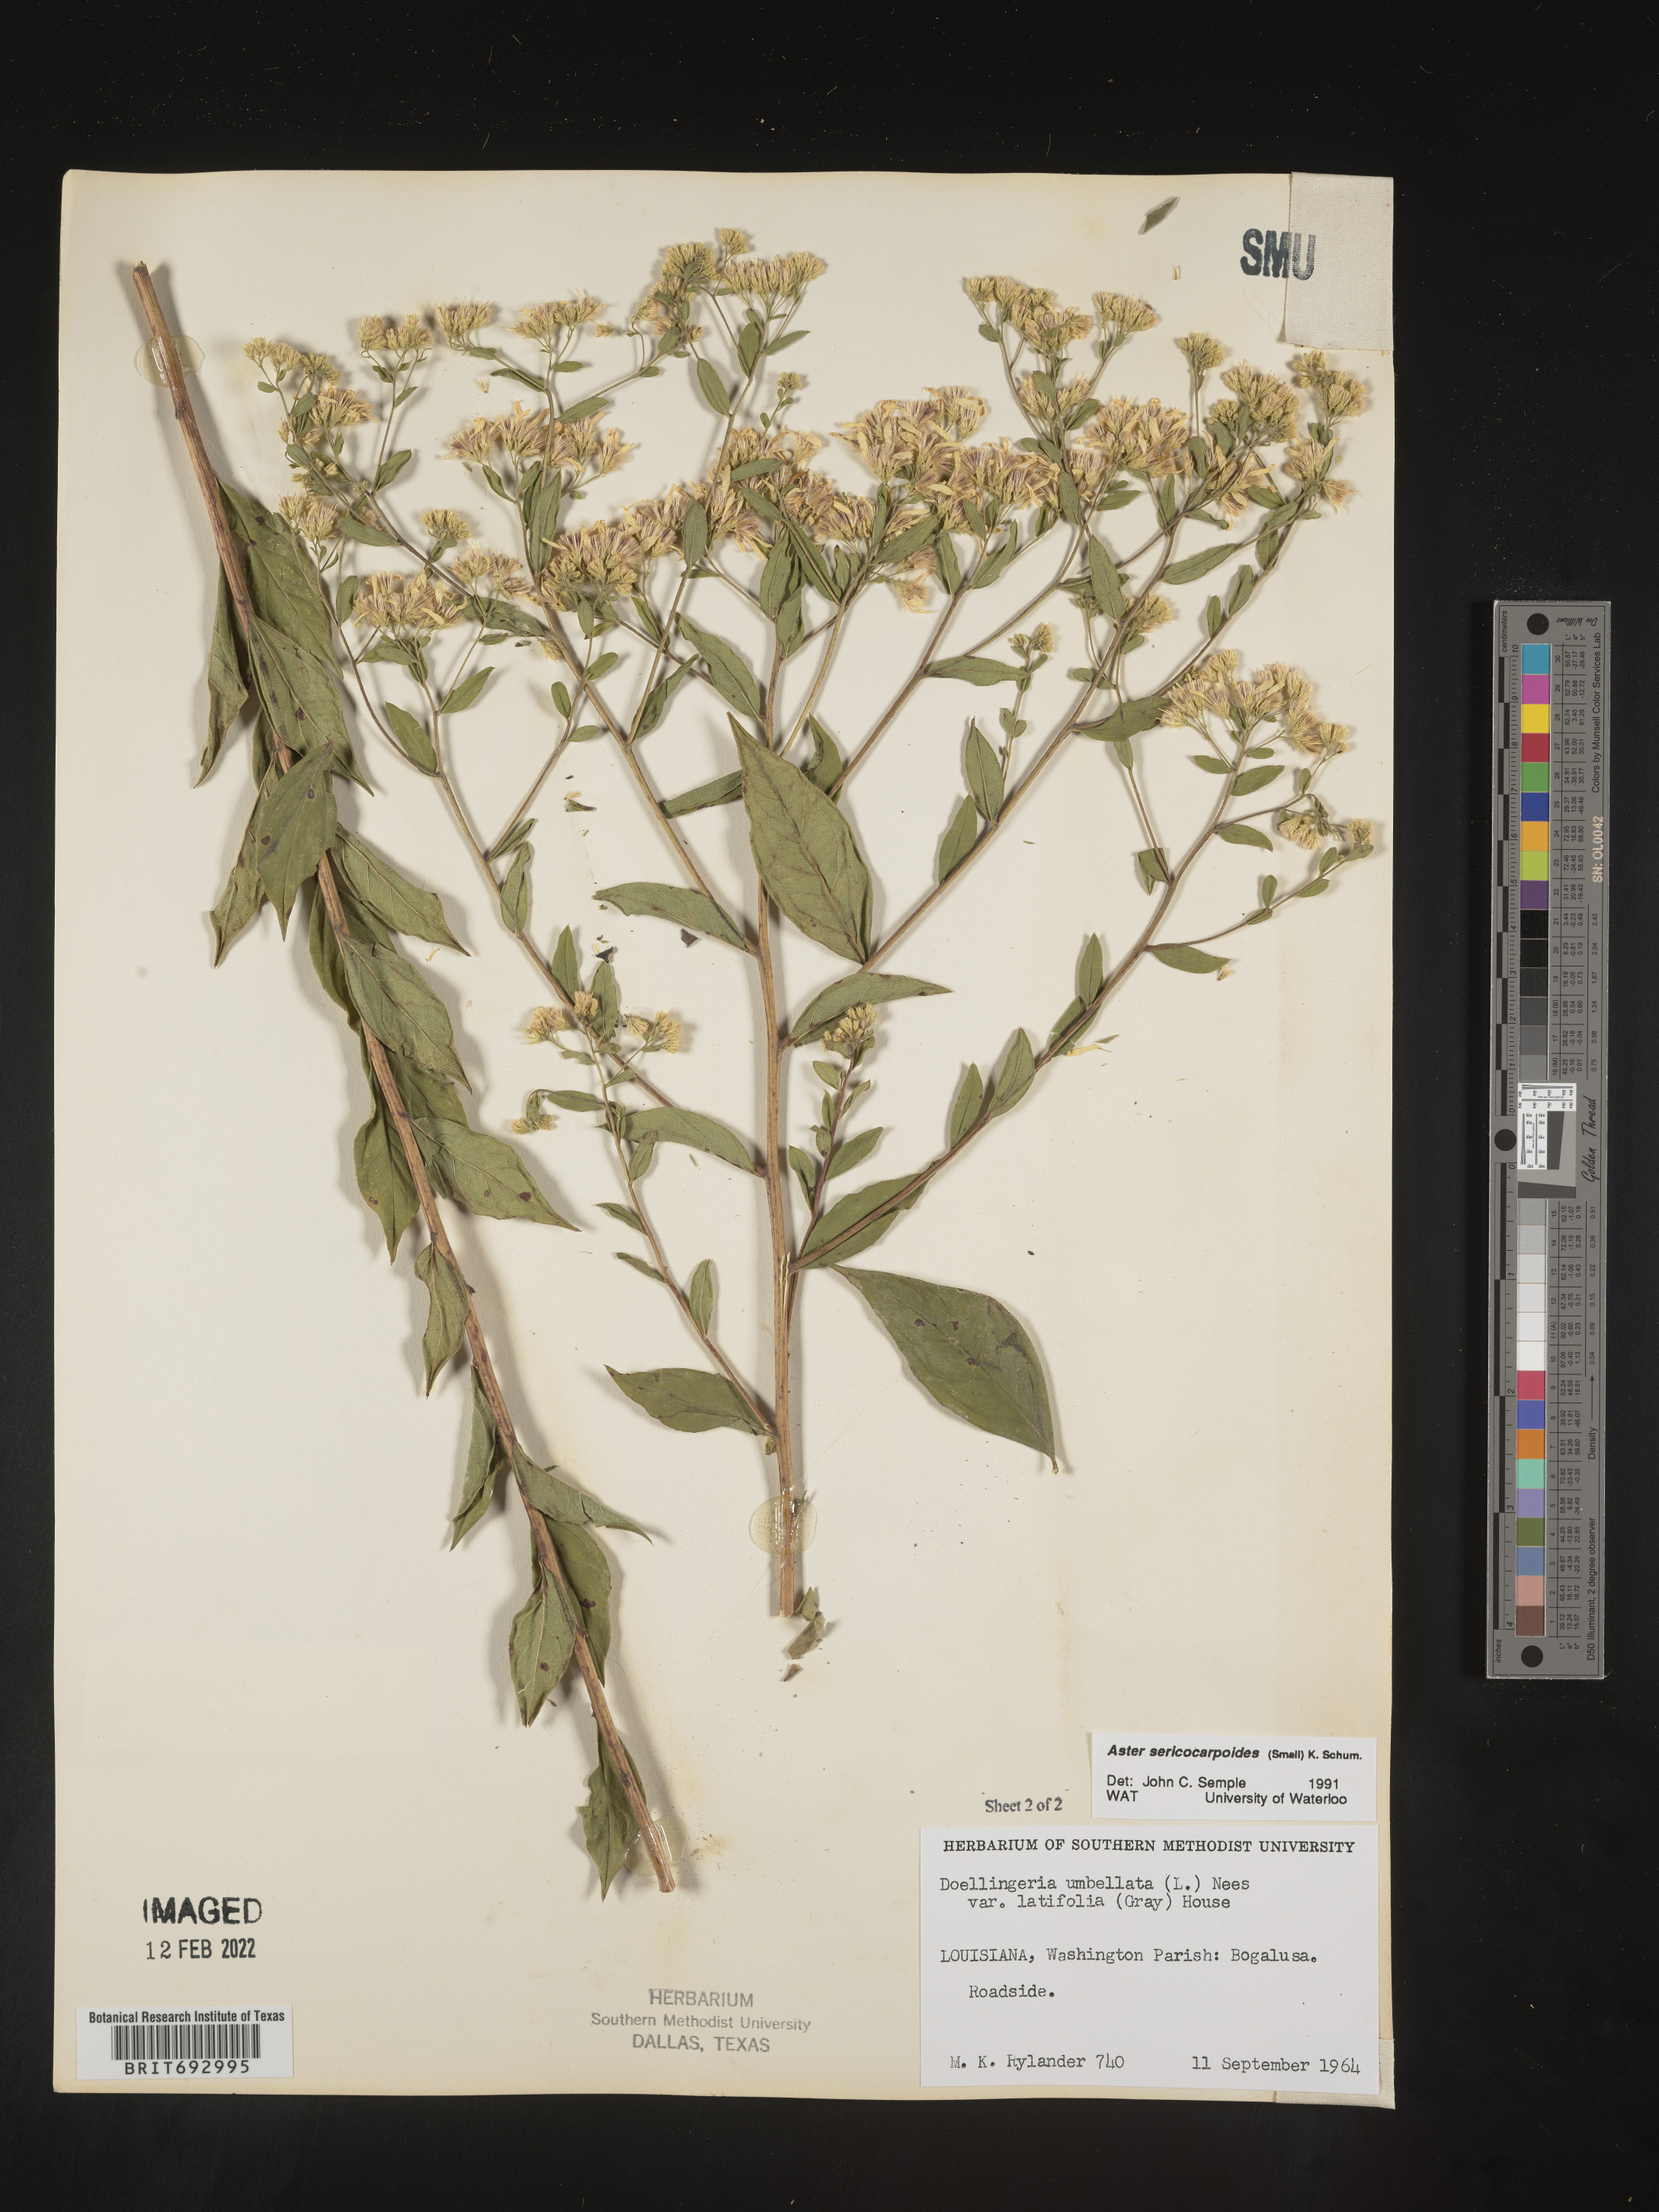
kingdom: Plantae
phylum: Tracheophyta
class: Magnoliopsida
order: Asterales
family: Asteraceae
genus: Doellingeria
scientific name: Doellingeria sericocarpoides
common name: Southern tall flat-top aster
